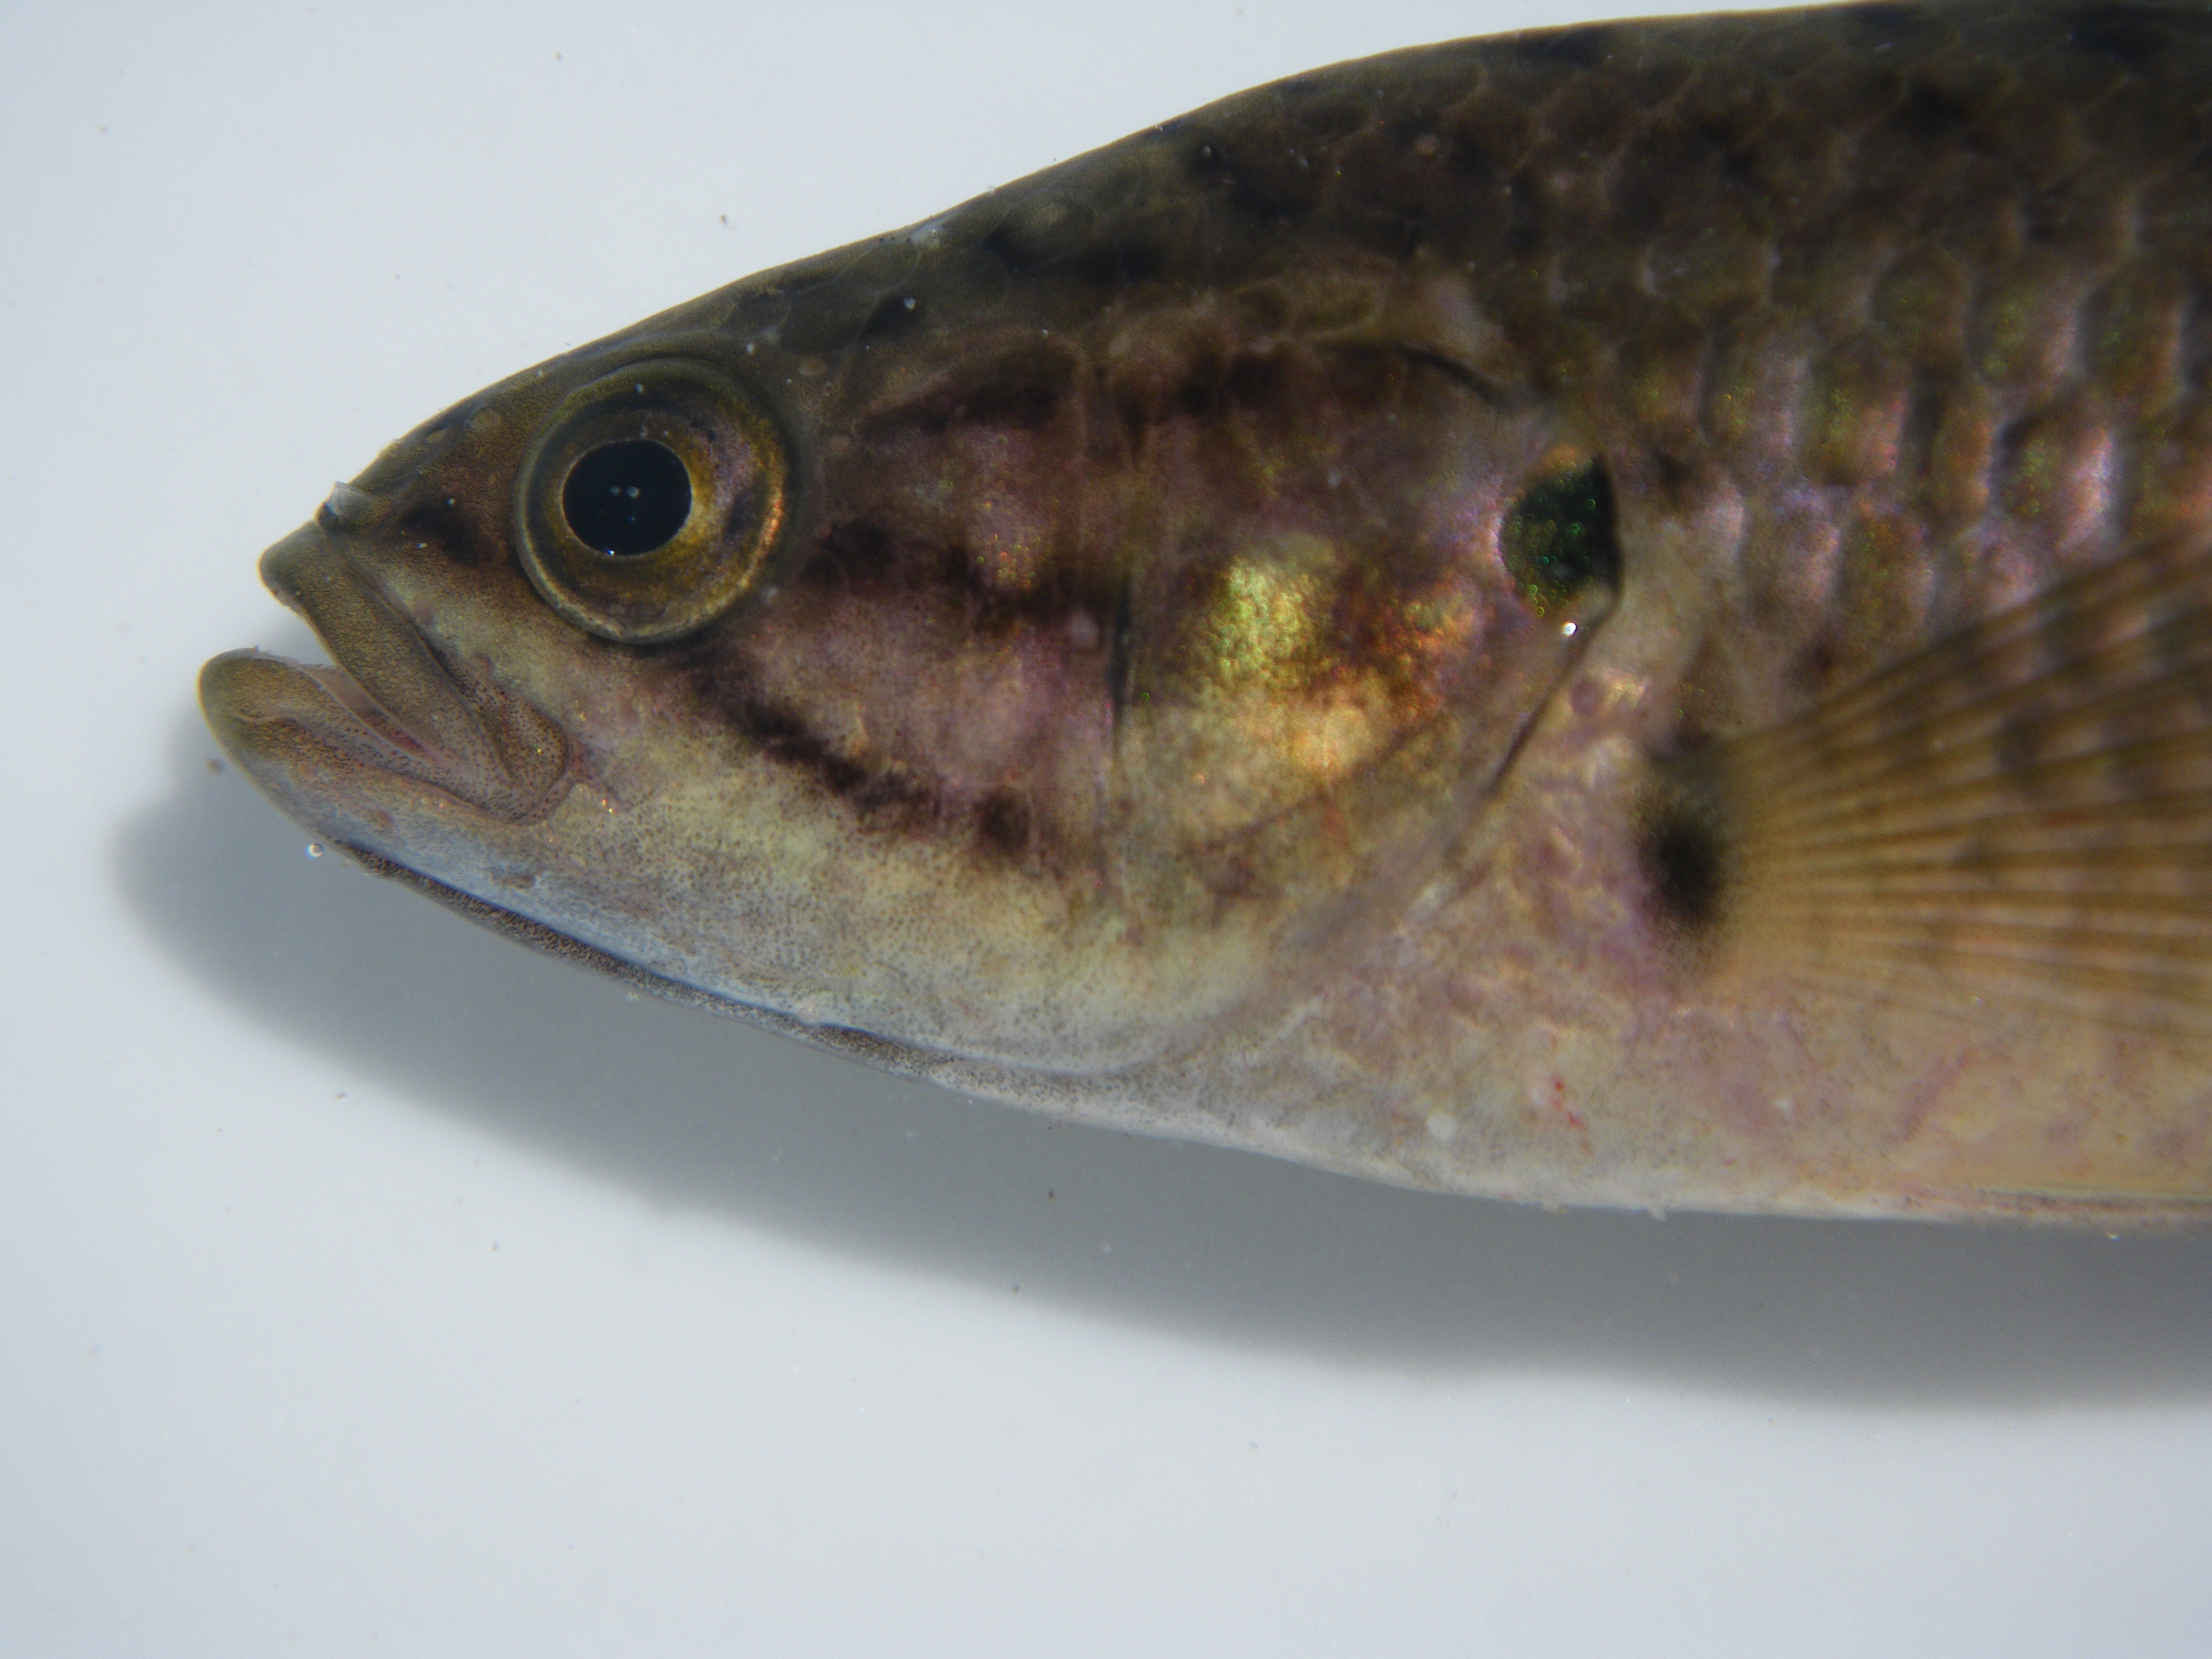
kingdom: Animalia
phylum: Chordata
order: Perciformes
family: Anabantidae
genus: Sandelia
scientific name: Sandelia capensis
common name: Cape kurper
